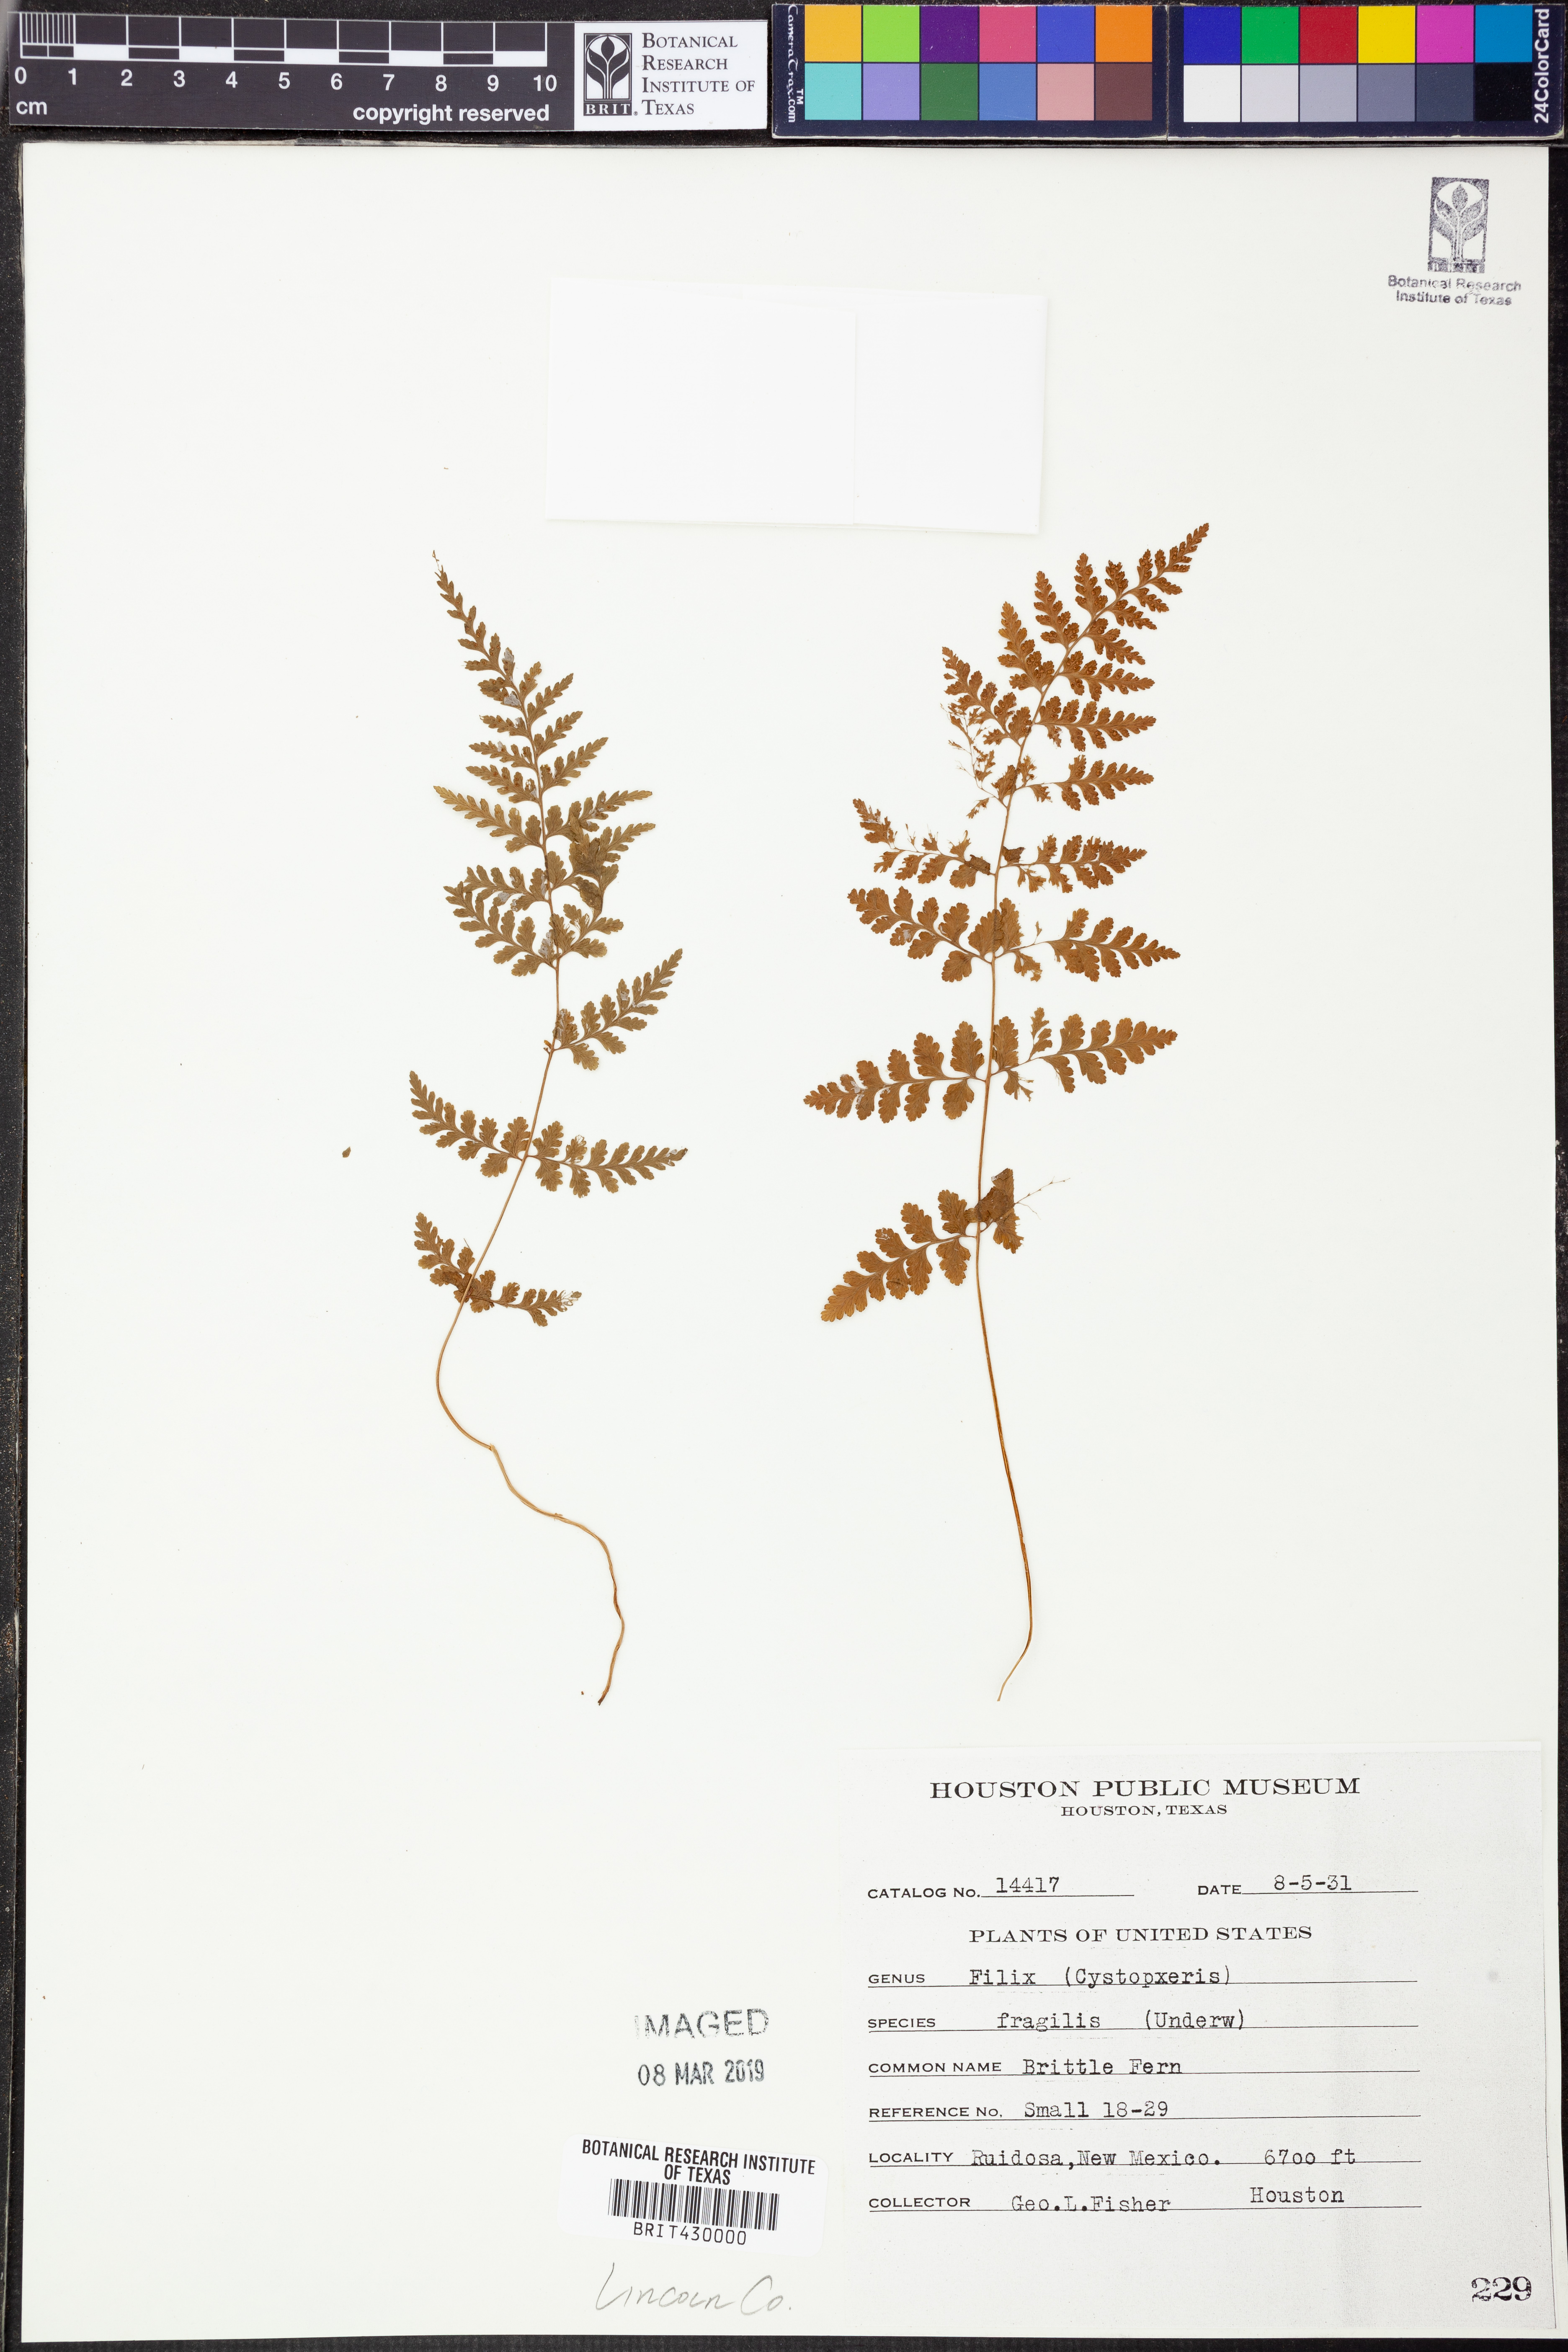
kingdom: Plantae
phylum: Tracheophyta
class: Polypodiopsida
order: Polypodiales
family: Cystopteridaceae
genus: Cystopteris
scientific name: Cystopteris fragilis
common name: Brittle bladder fern
